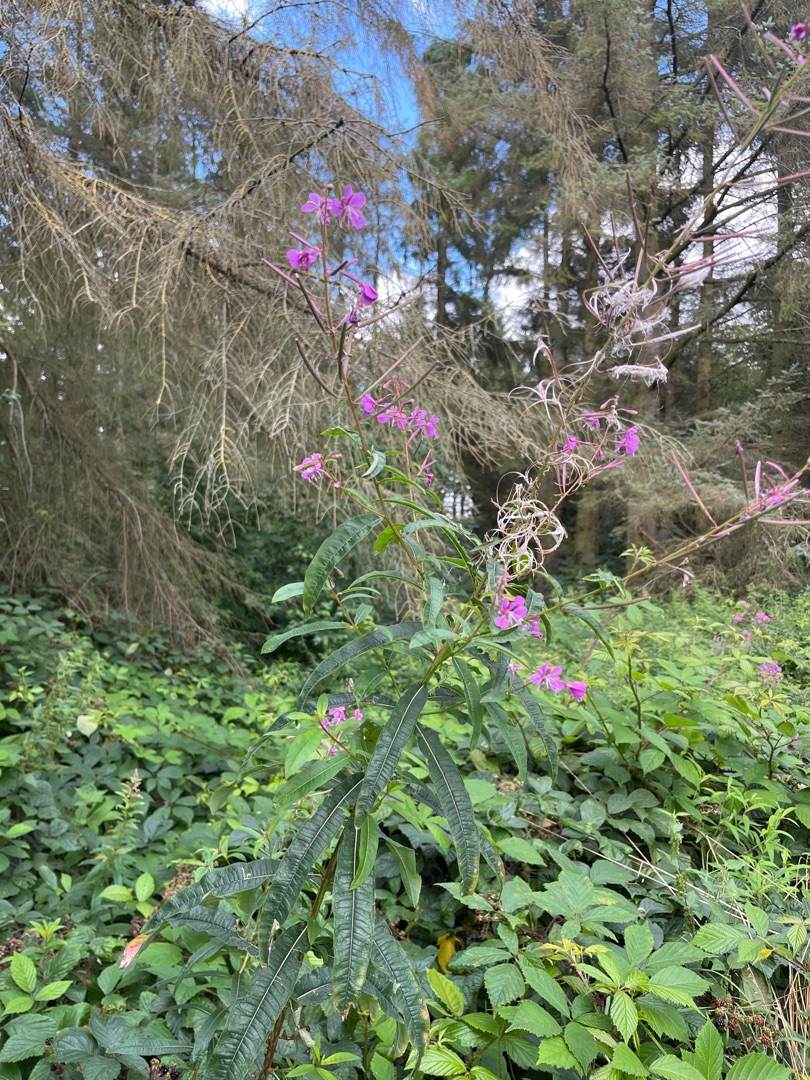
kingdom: Plantae
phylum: Tracheophyta
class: Magnoliopsida
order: Myrtales
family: Onagraceae
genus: Chamaenerion
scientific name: Chamaenerion angustifolium
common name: Gederams
